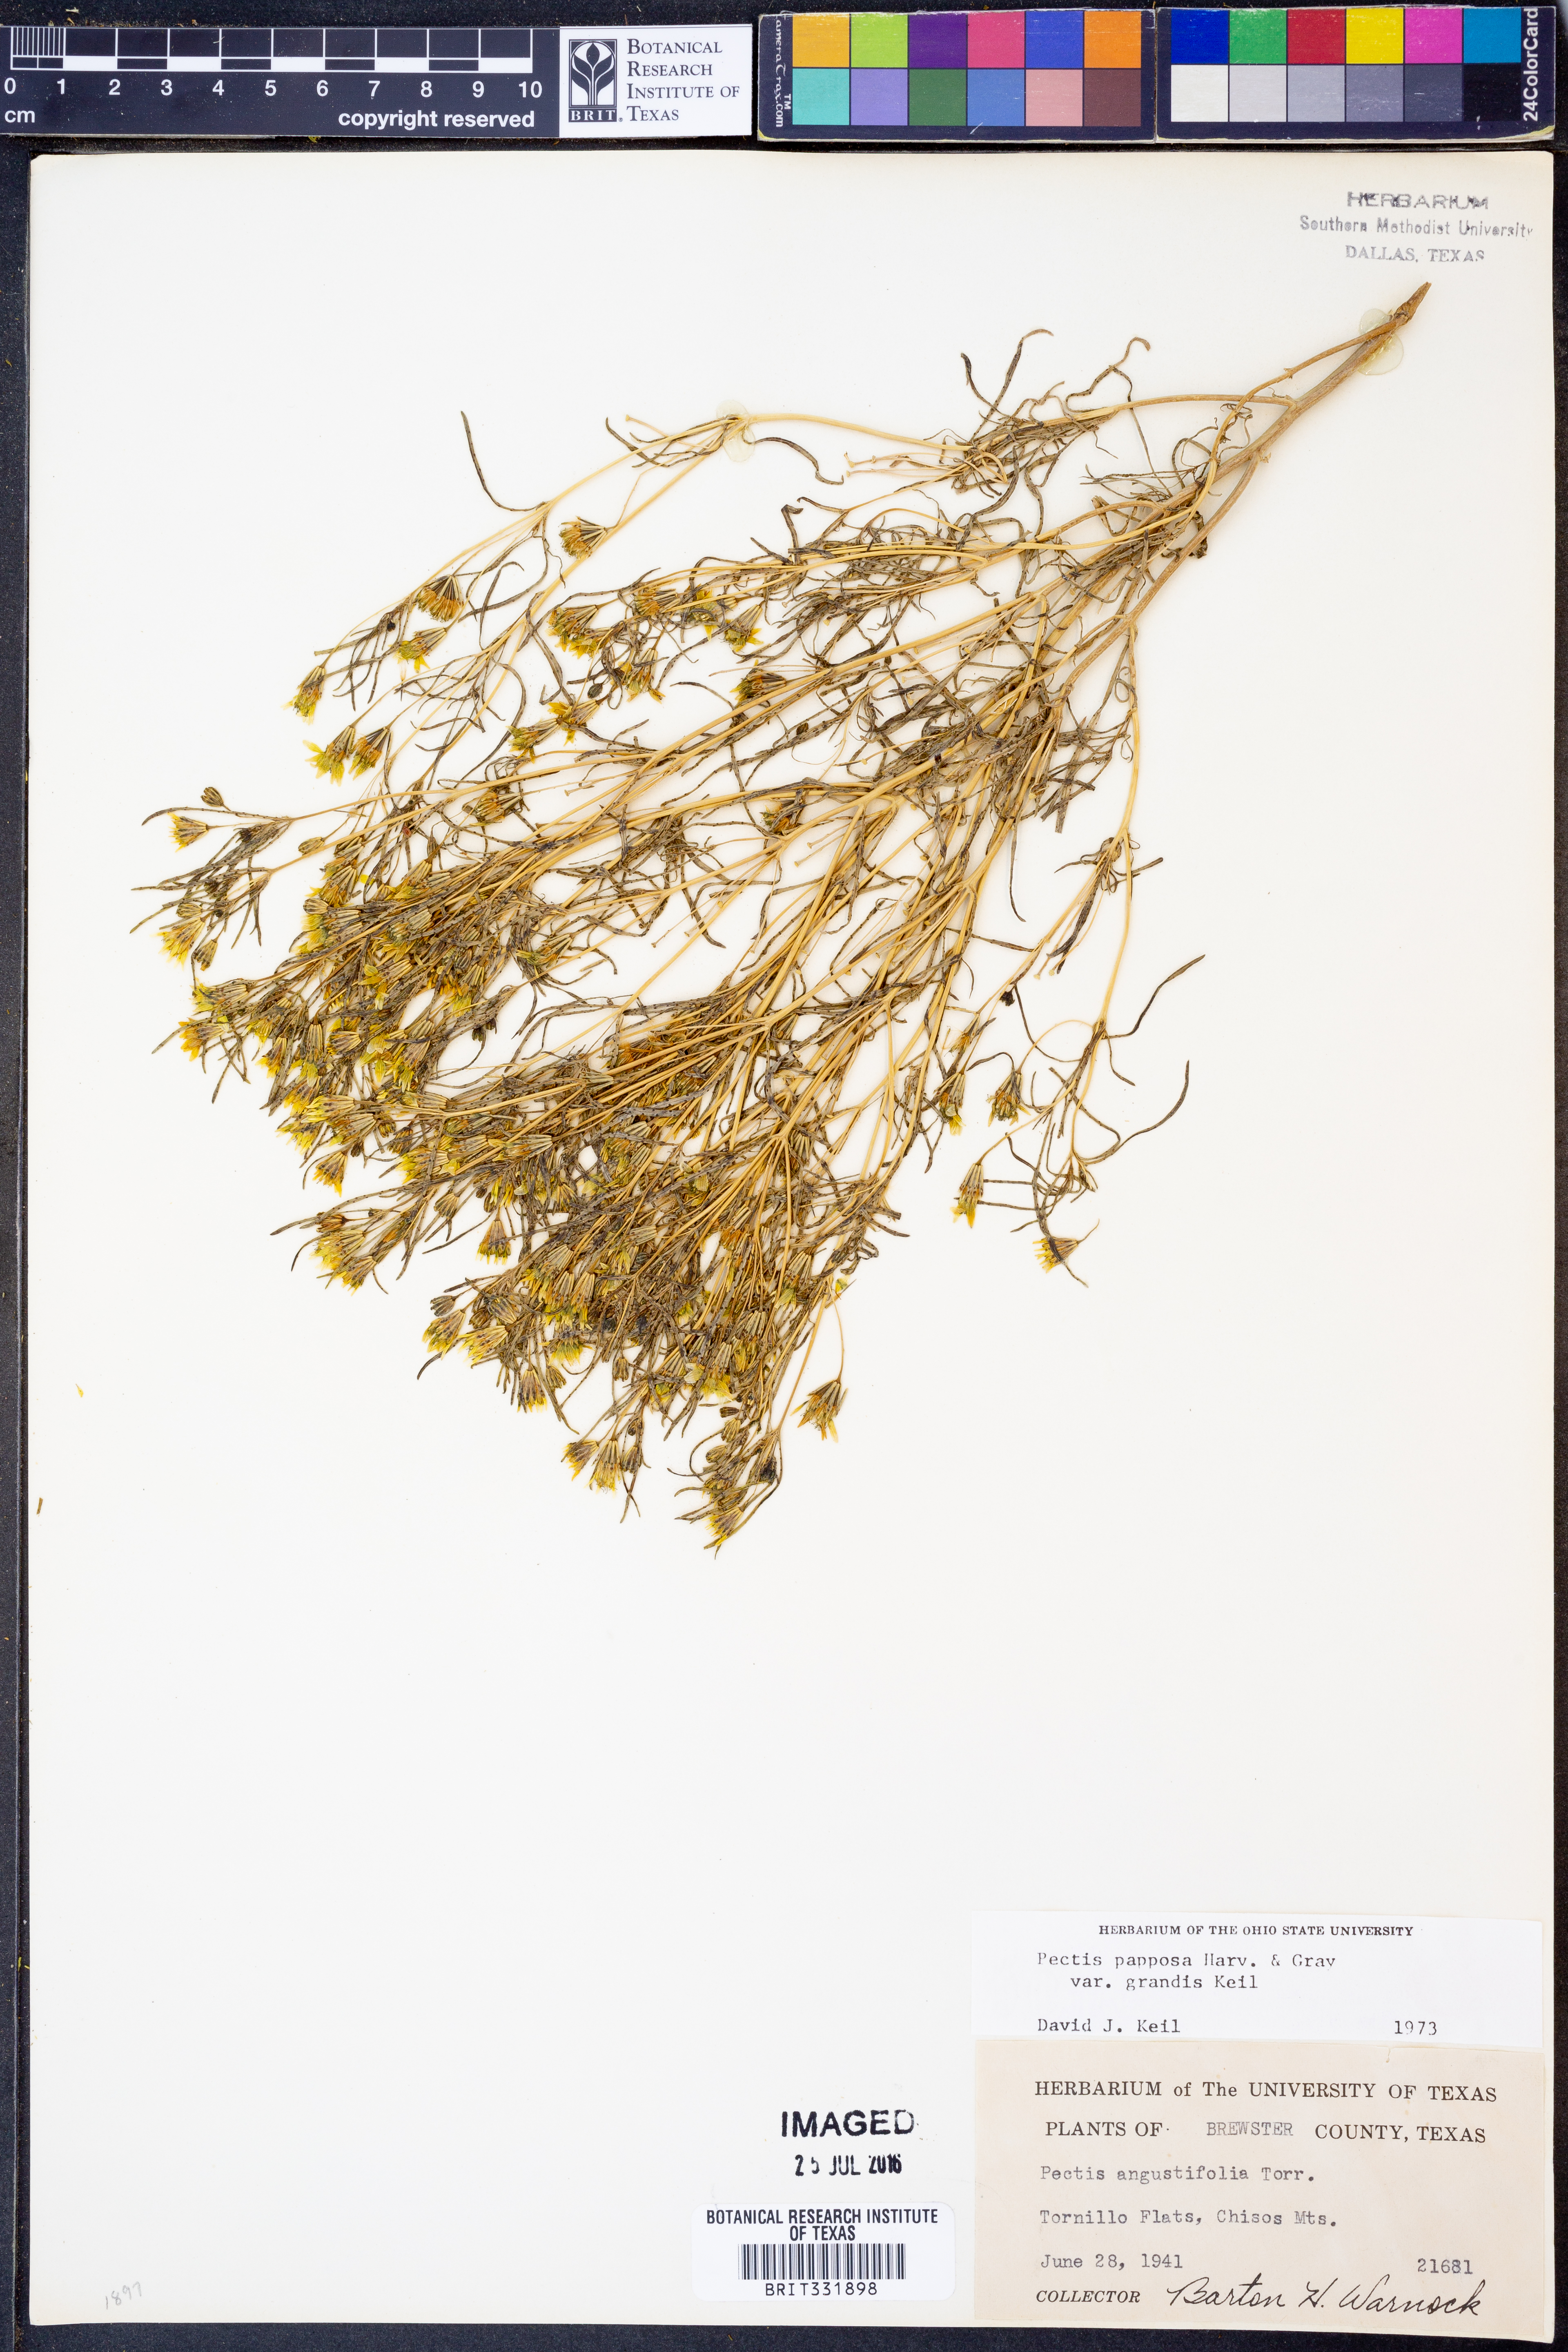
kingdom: Plantae
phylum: Tracheophyta
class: Magnoliopsida
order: Asterales
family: Asteraceae
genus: Pectis
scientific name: Pectis papposa
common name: Many-bristle chinchweed
